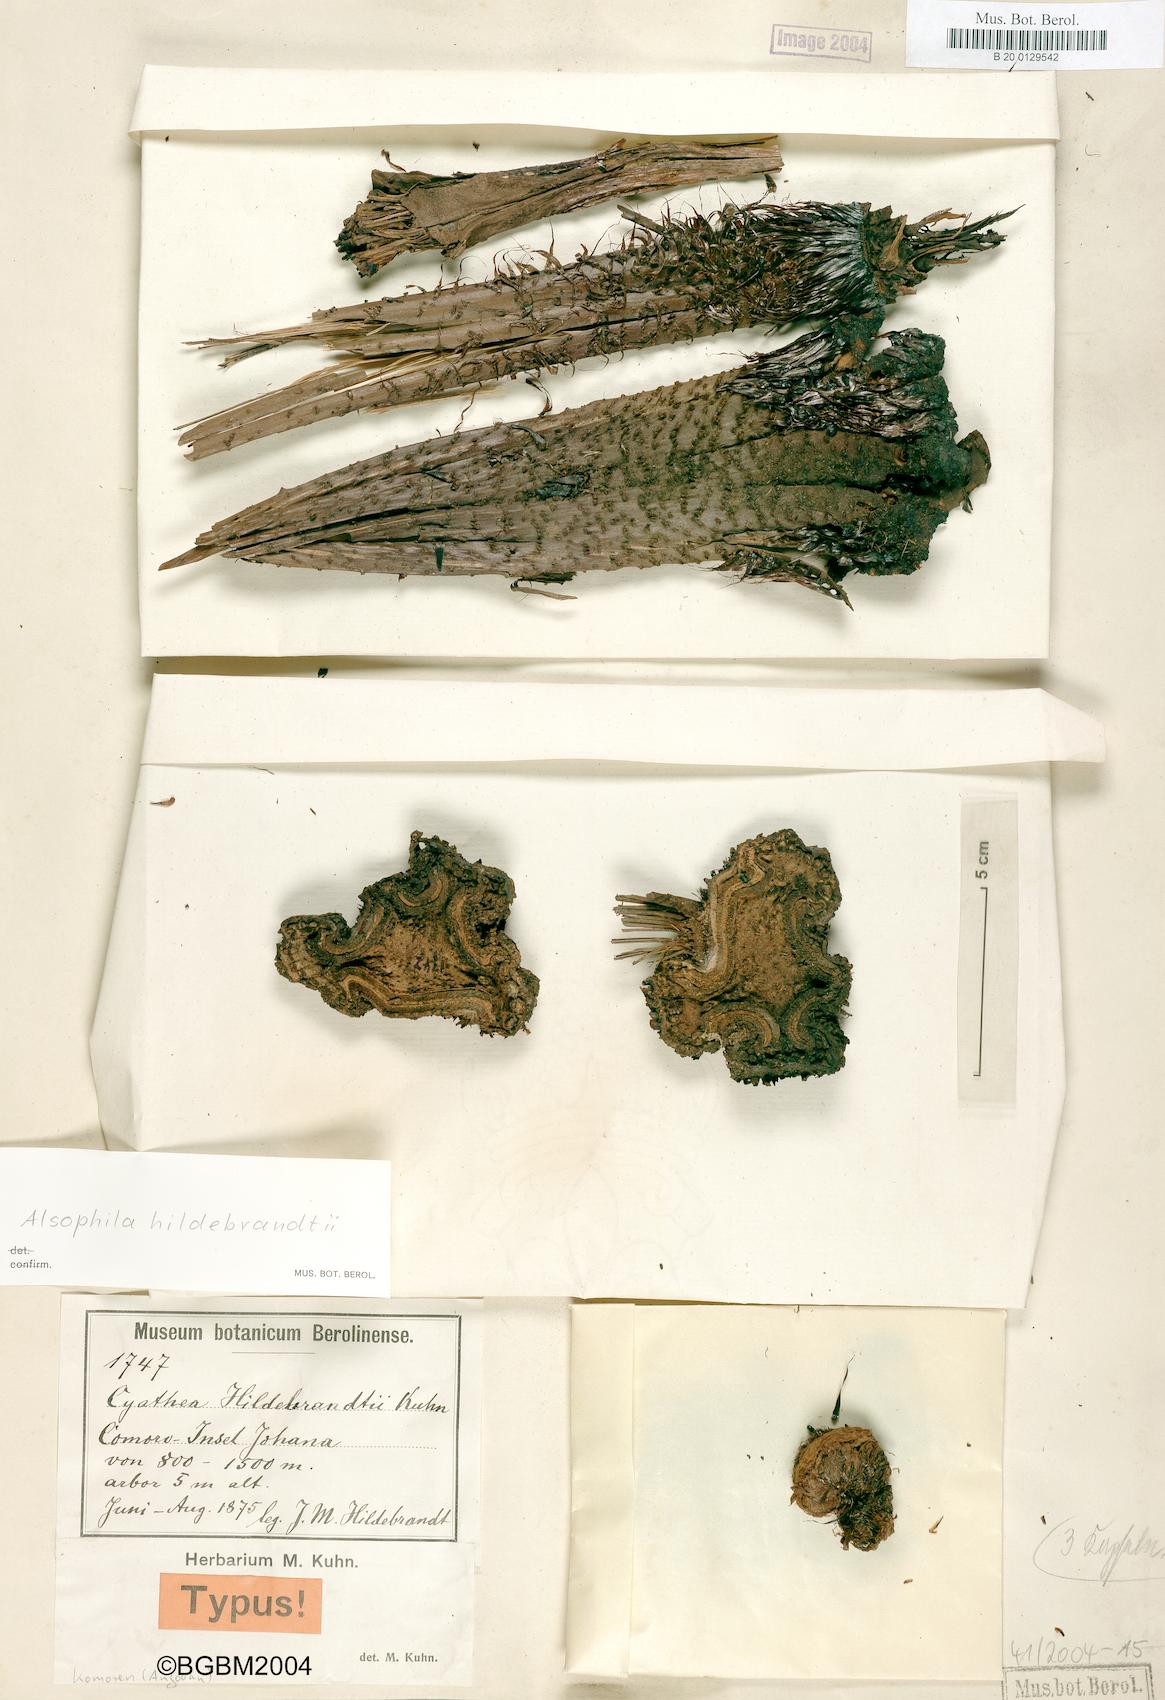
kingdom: Plantae
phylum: Tracheophyta
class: Polypodiopsida
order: Cyatheales
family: Cyatheaceae
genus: Gymnosphaera
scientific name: Gymnosphaera boivinii
